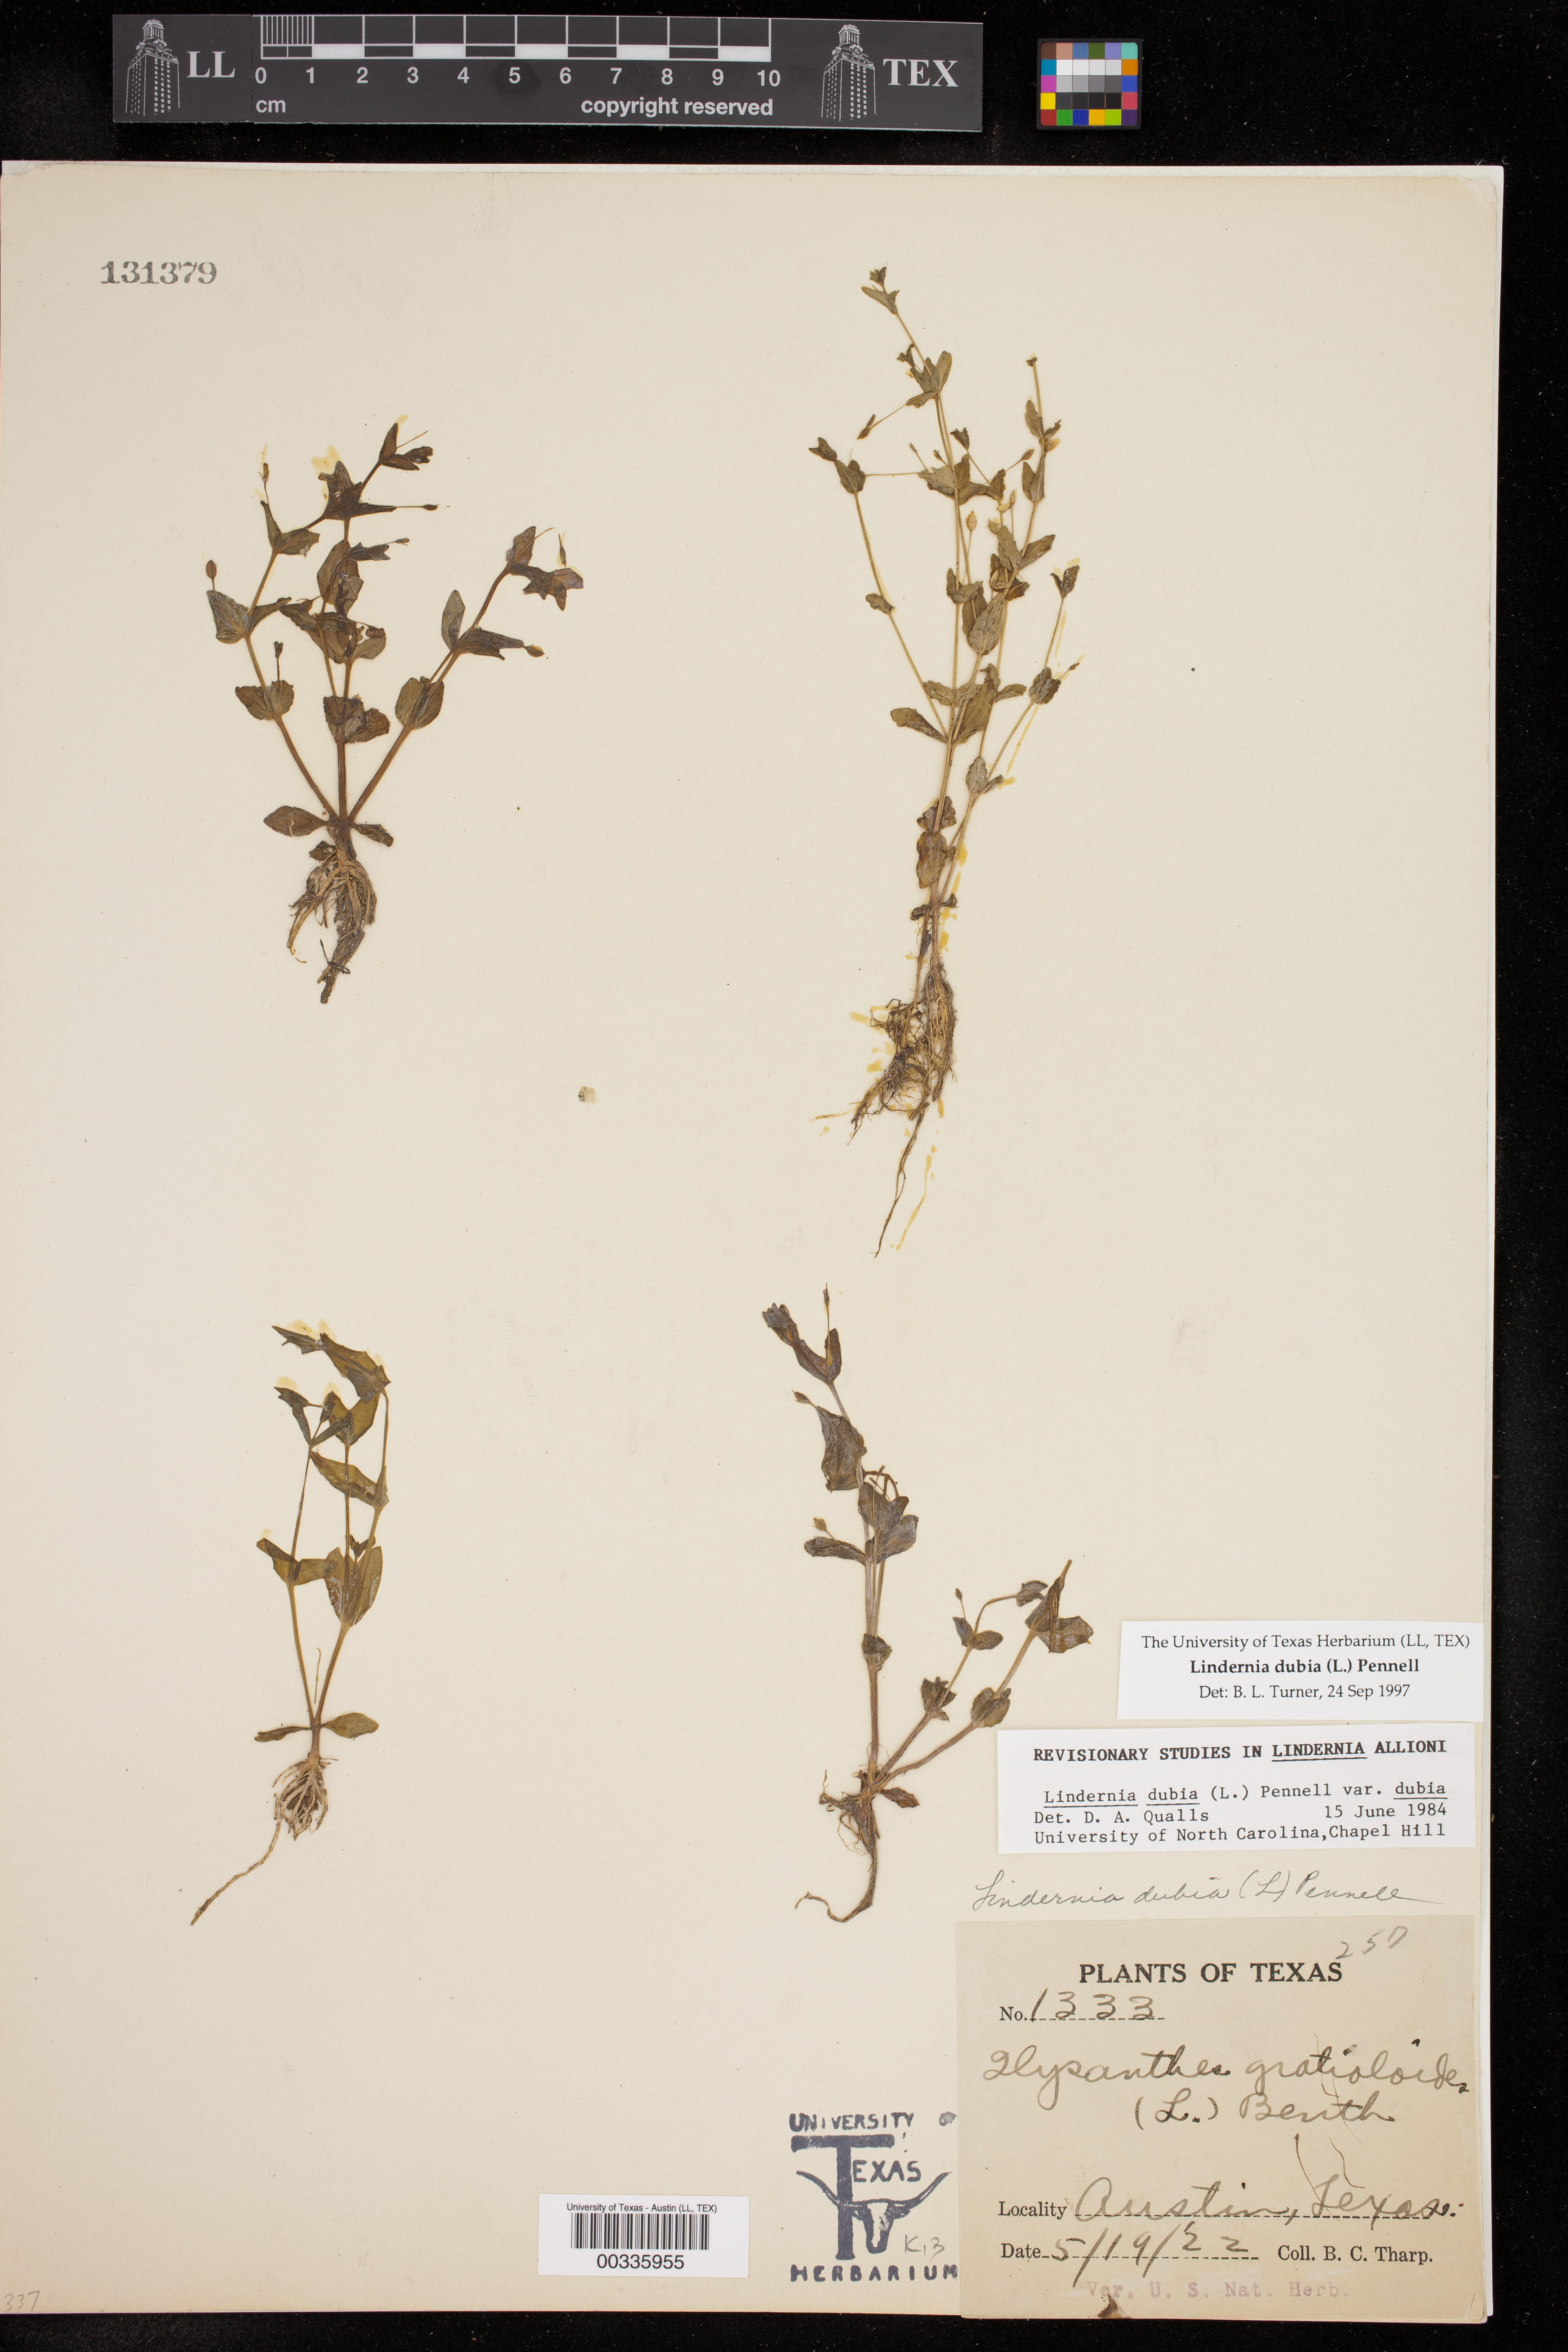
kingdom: Plantae
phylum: Tracheophyta
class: Magnoliopsida
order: Lamiales
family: Linderniaceae
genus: Lindernia
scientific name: Lindernia dubia
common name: Annual false pimpernel
